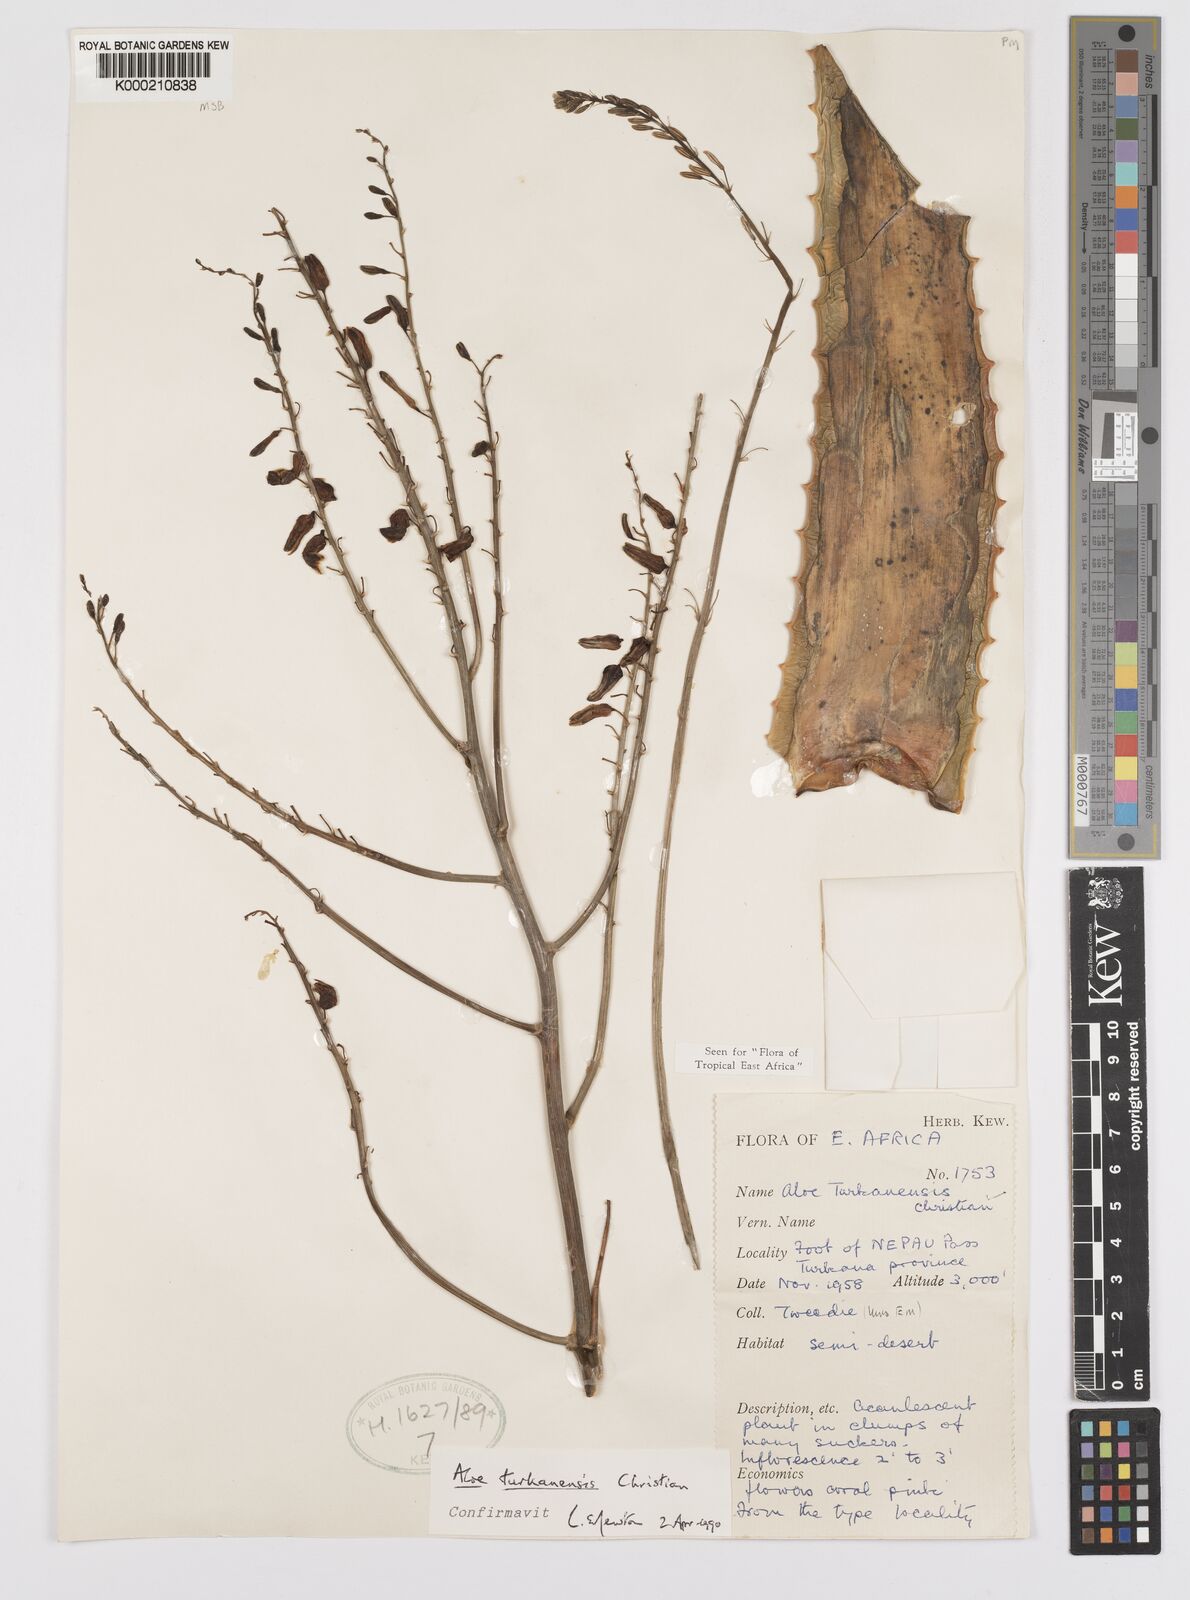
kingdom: Plantae
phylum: Tracheophyta
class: Liliopsida
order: Asparagales
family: Asphodelaceae
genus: Aloe
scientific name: Aloe turkanensis
